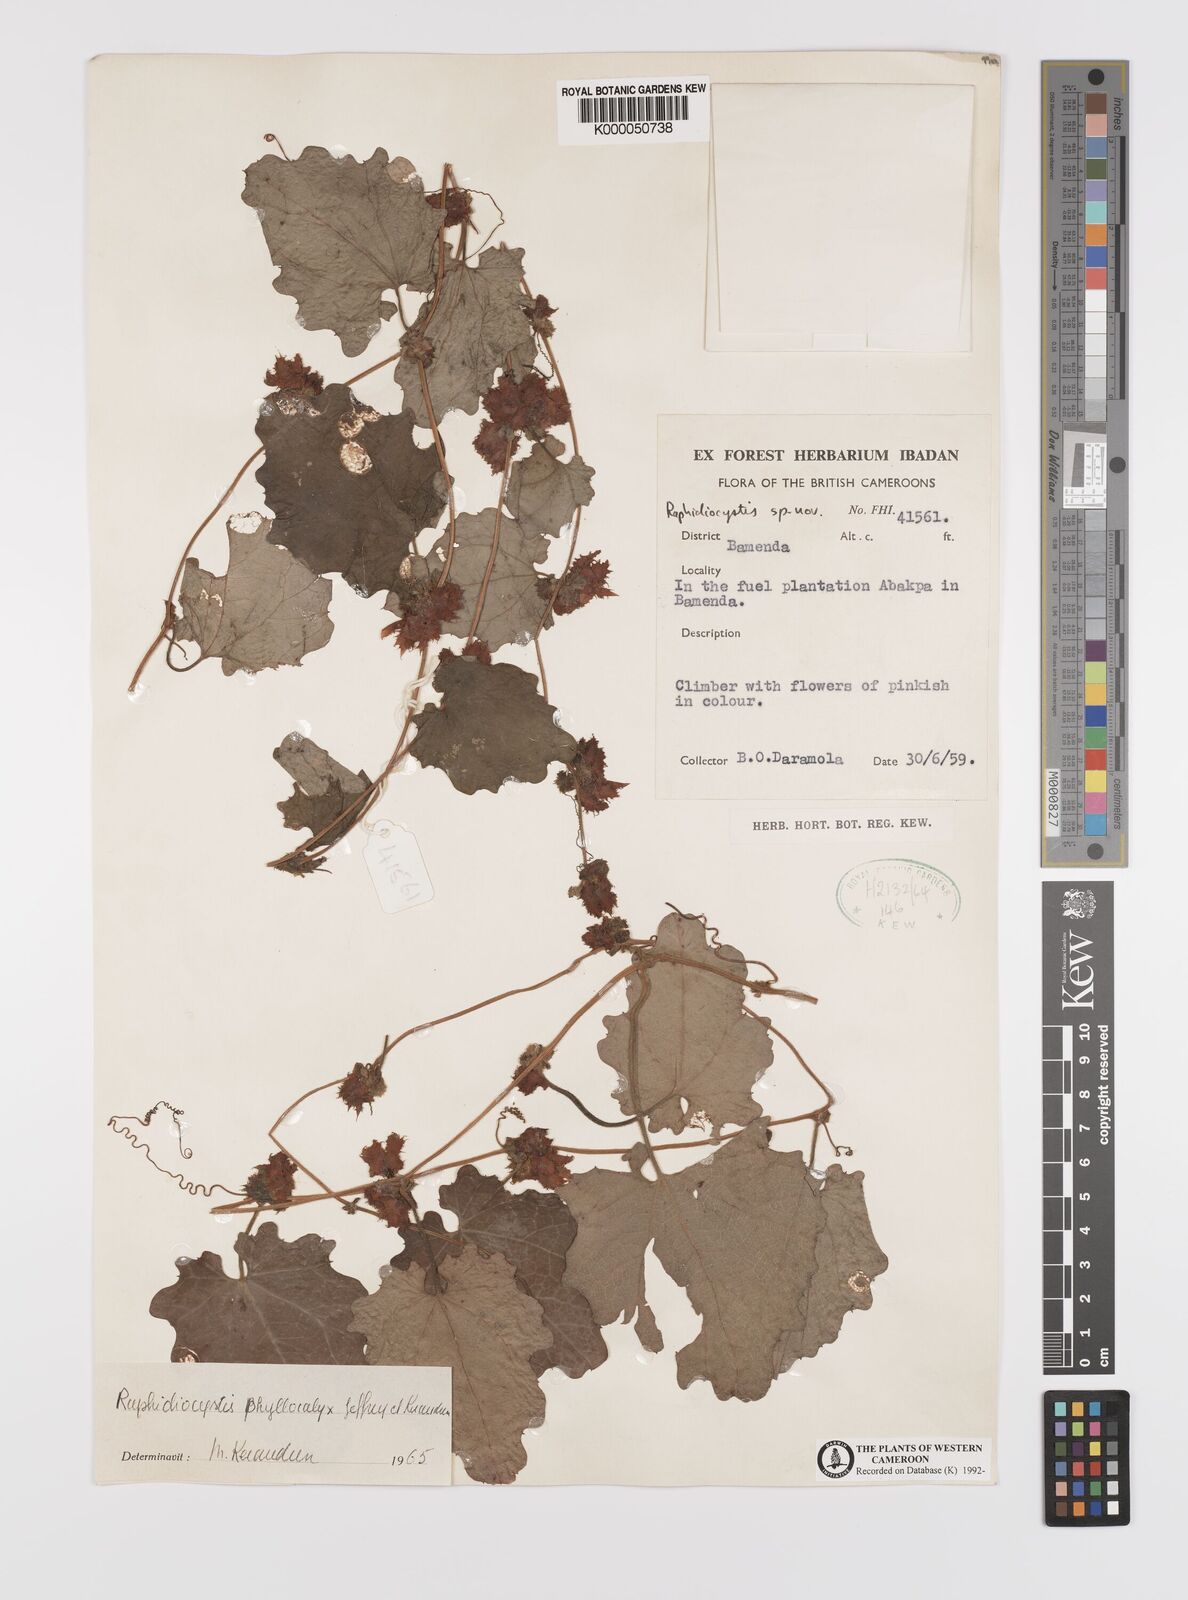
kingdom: Plantae
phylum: Tracheophyta
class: Magnoliopsida
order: Cucurbitales
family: Cucurbitaceae
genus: Raphidiocystis
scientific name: Raphidiocystis phyllocalyx
